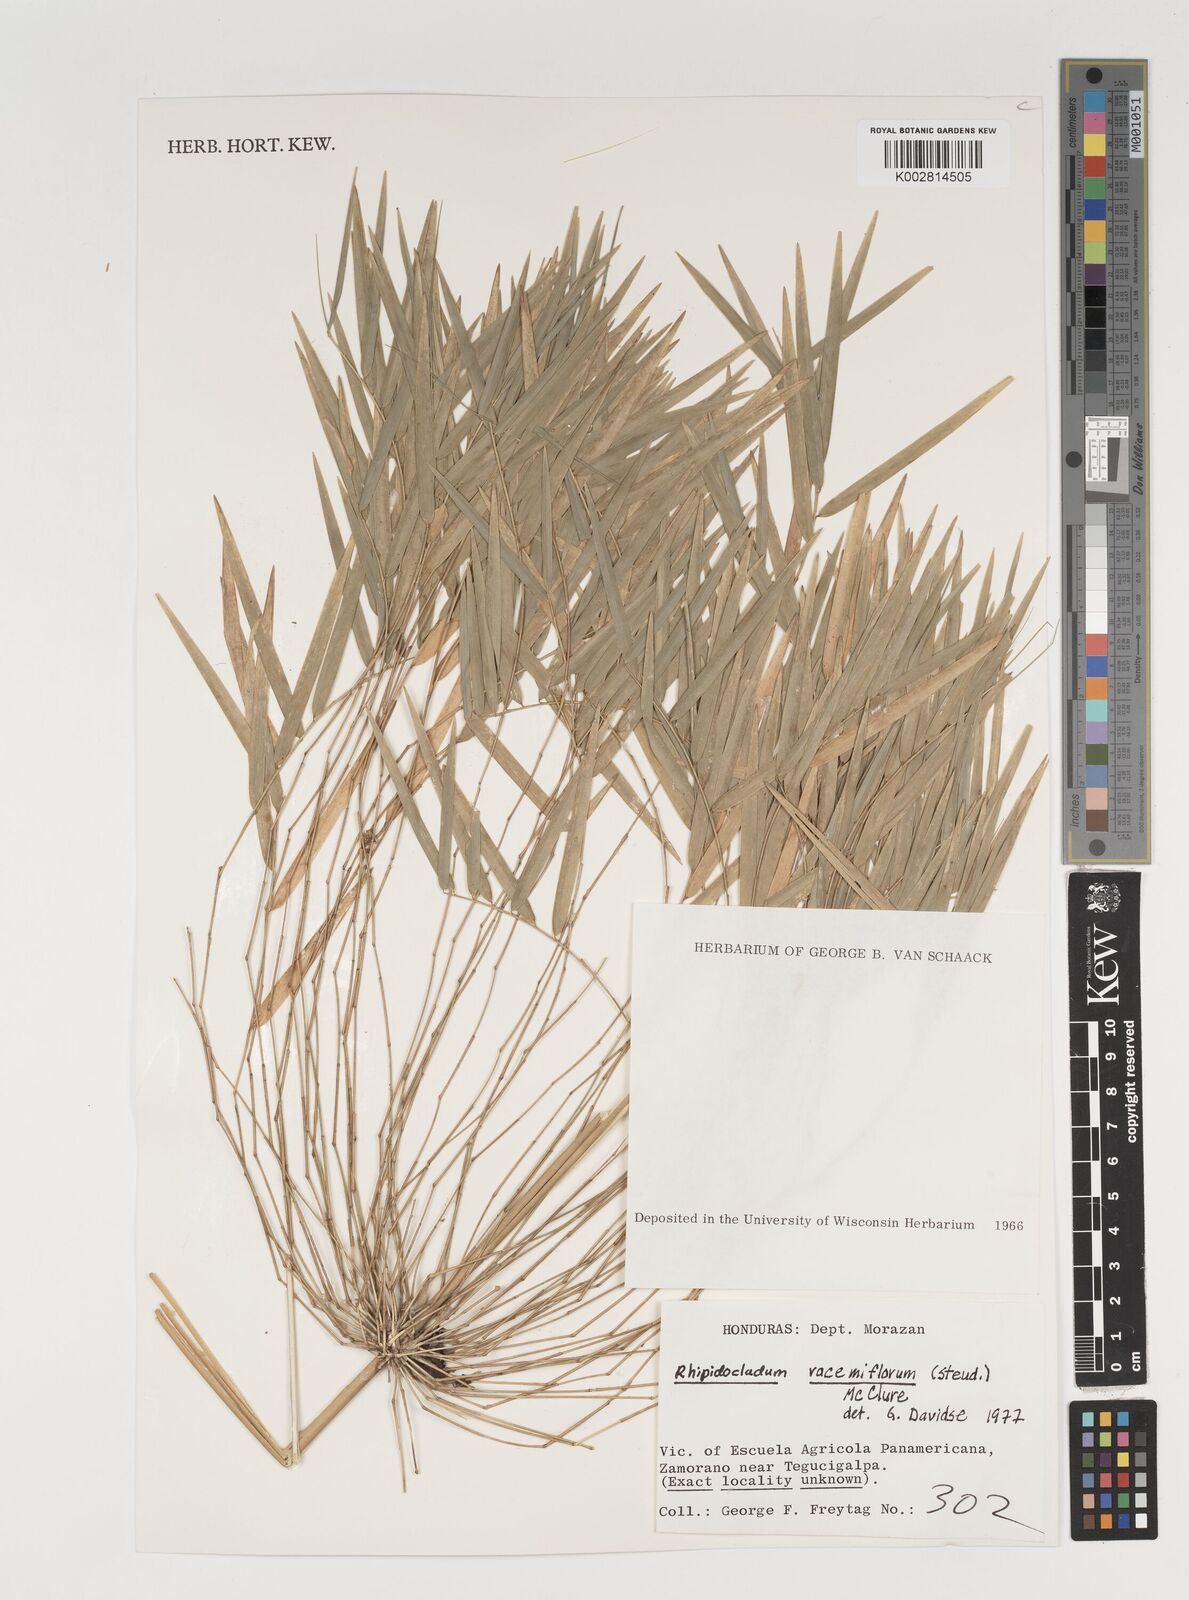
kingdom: Plantae
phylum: Tracheophyta
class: Liliopsida
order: Poales
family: Poaceae
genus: Rhipidocladum
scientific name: Rhipidocladum racemiflorum
